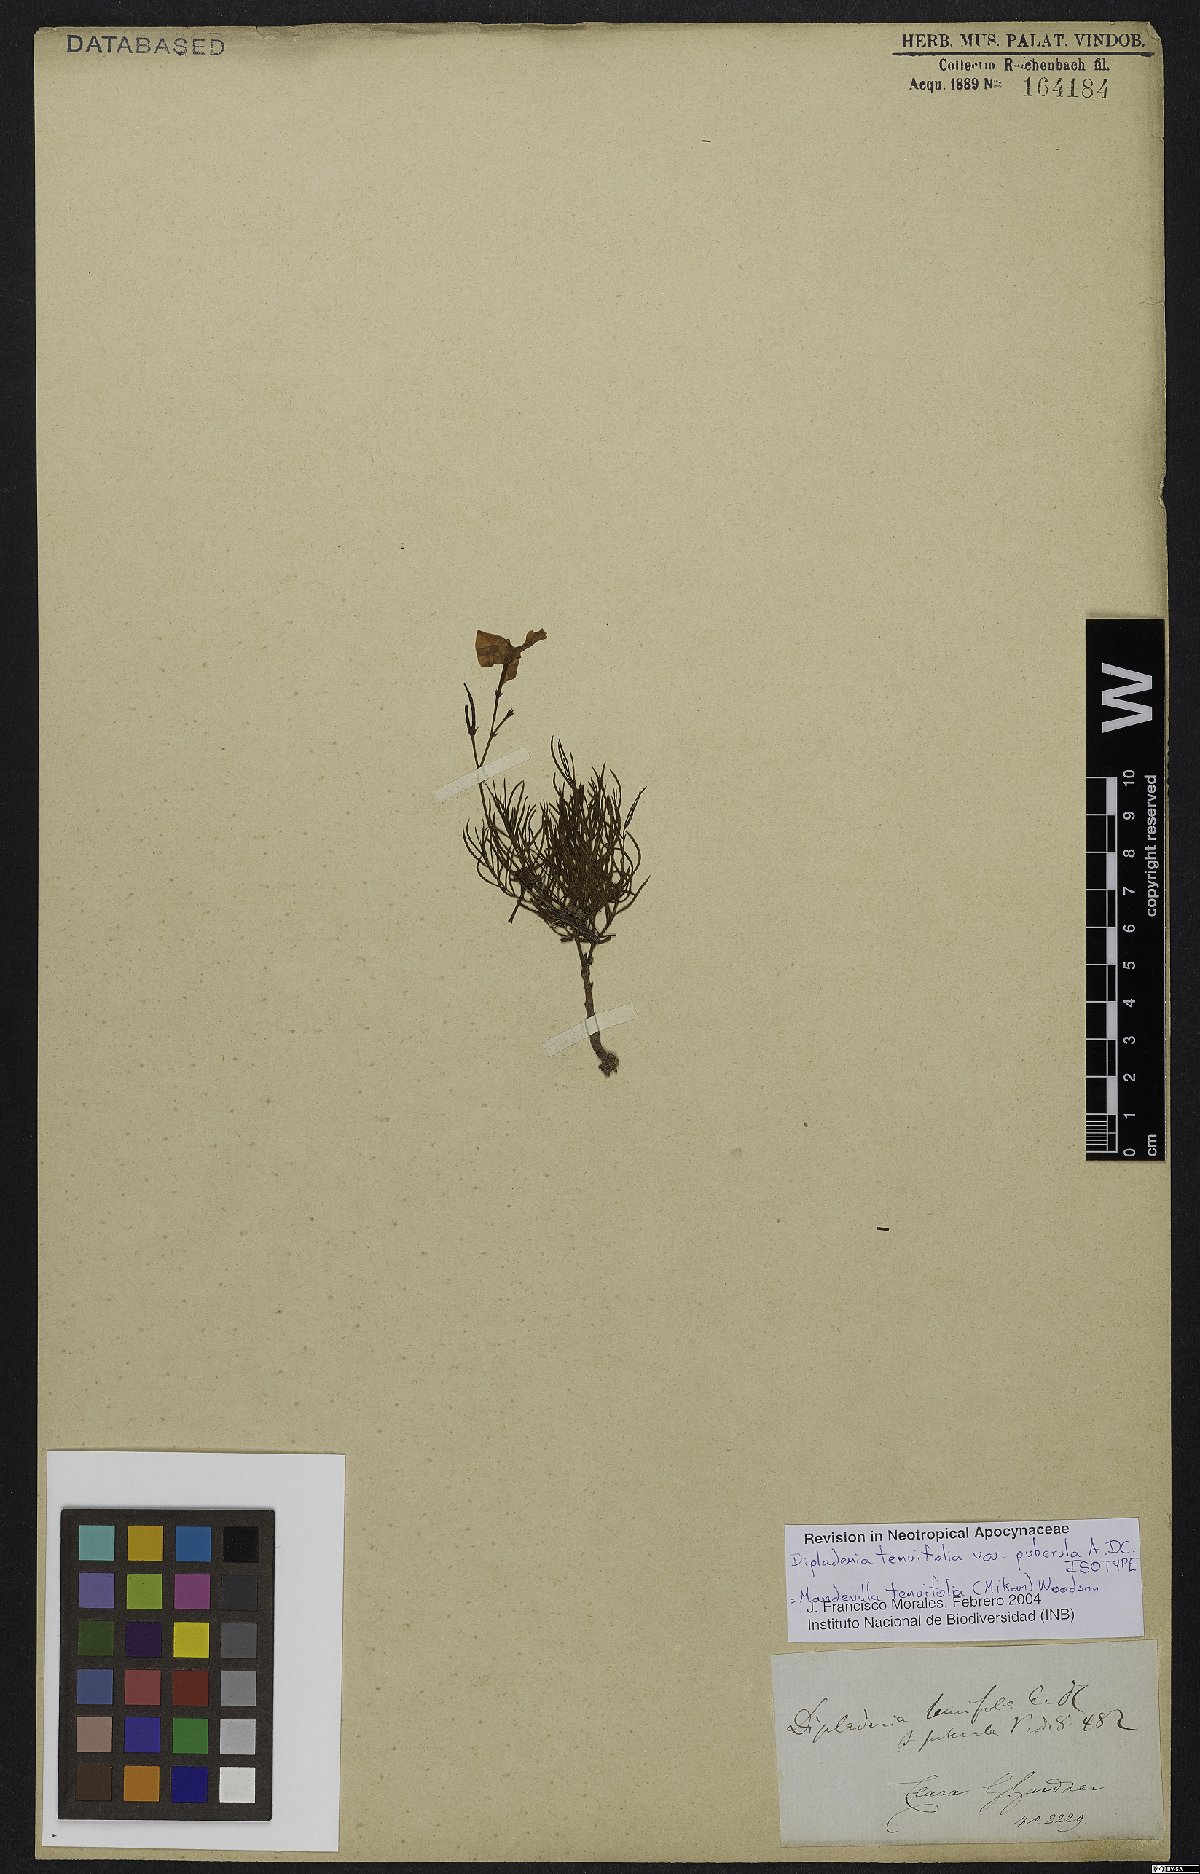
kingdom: Plantae
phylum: Tracheophyta
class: Magnoliopsida
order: Gentianales
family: Apocynaceae
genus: Mandevilla
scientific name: Mandevilla tenuifolia
